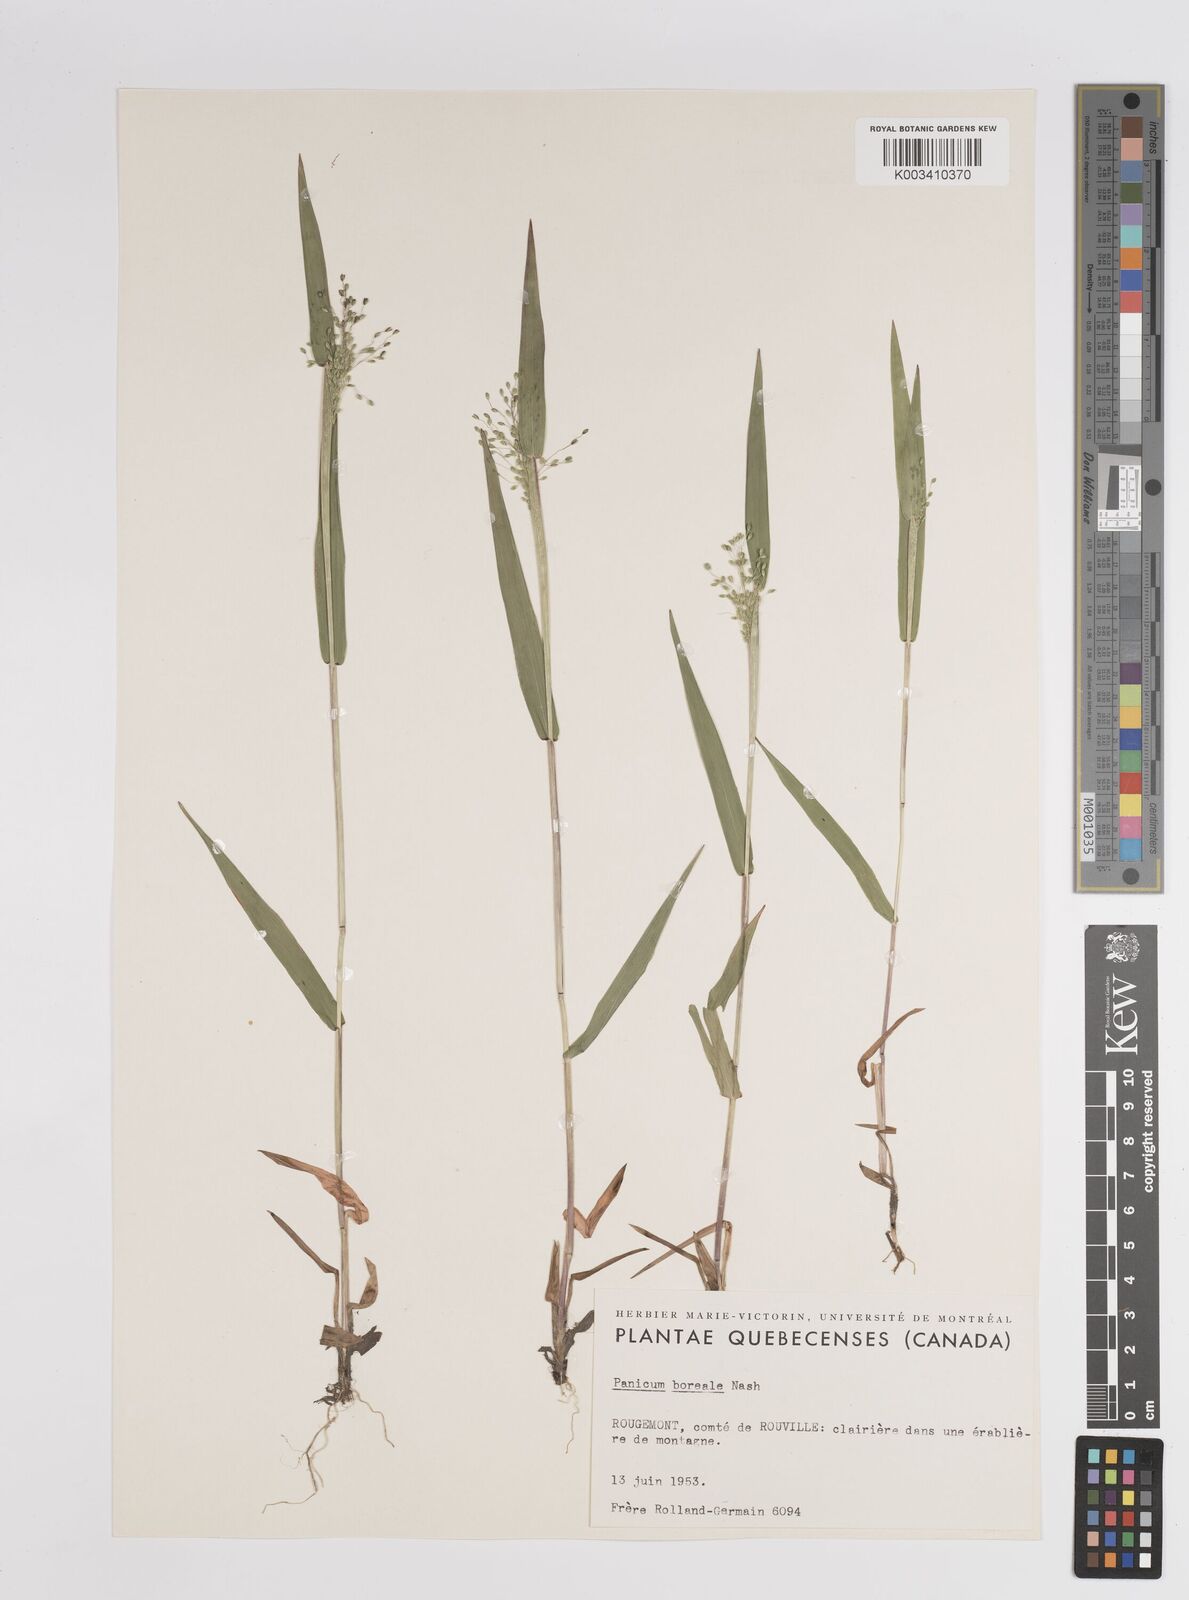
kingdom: Plantae
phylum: Tracheophyta
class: Liliopsida
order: Poales
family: Poaceae
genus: Dichanthelium
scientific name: Dichanthelium boreale
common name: Northern panicgrass
